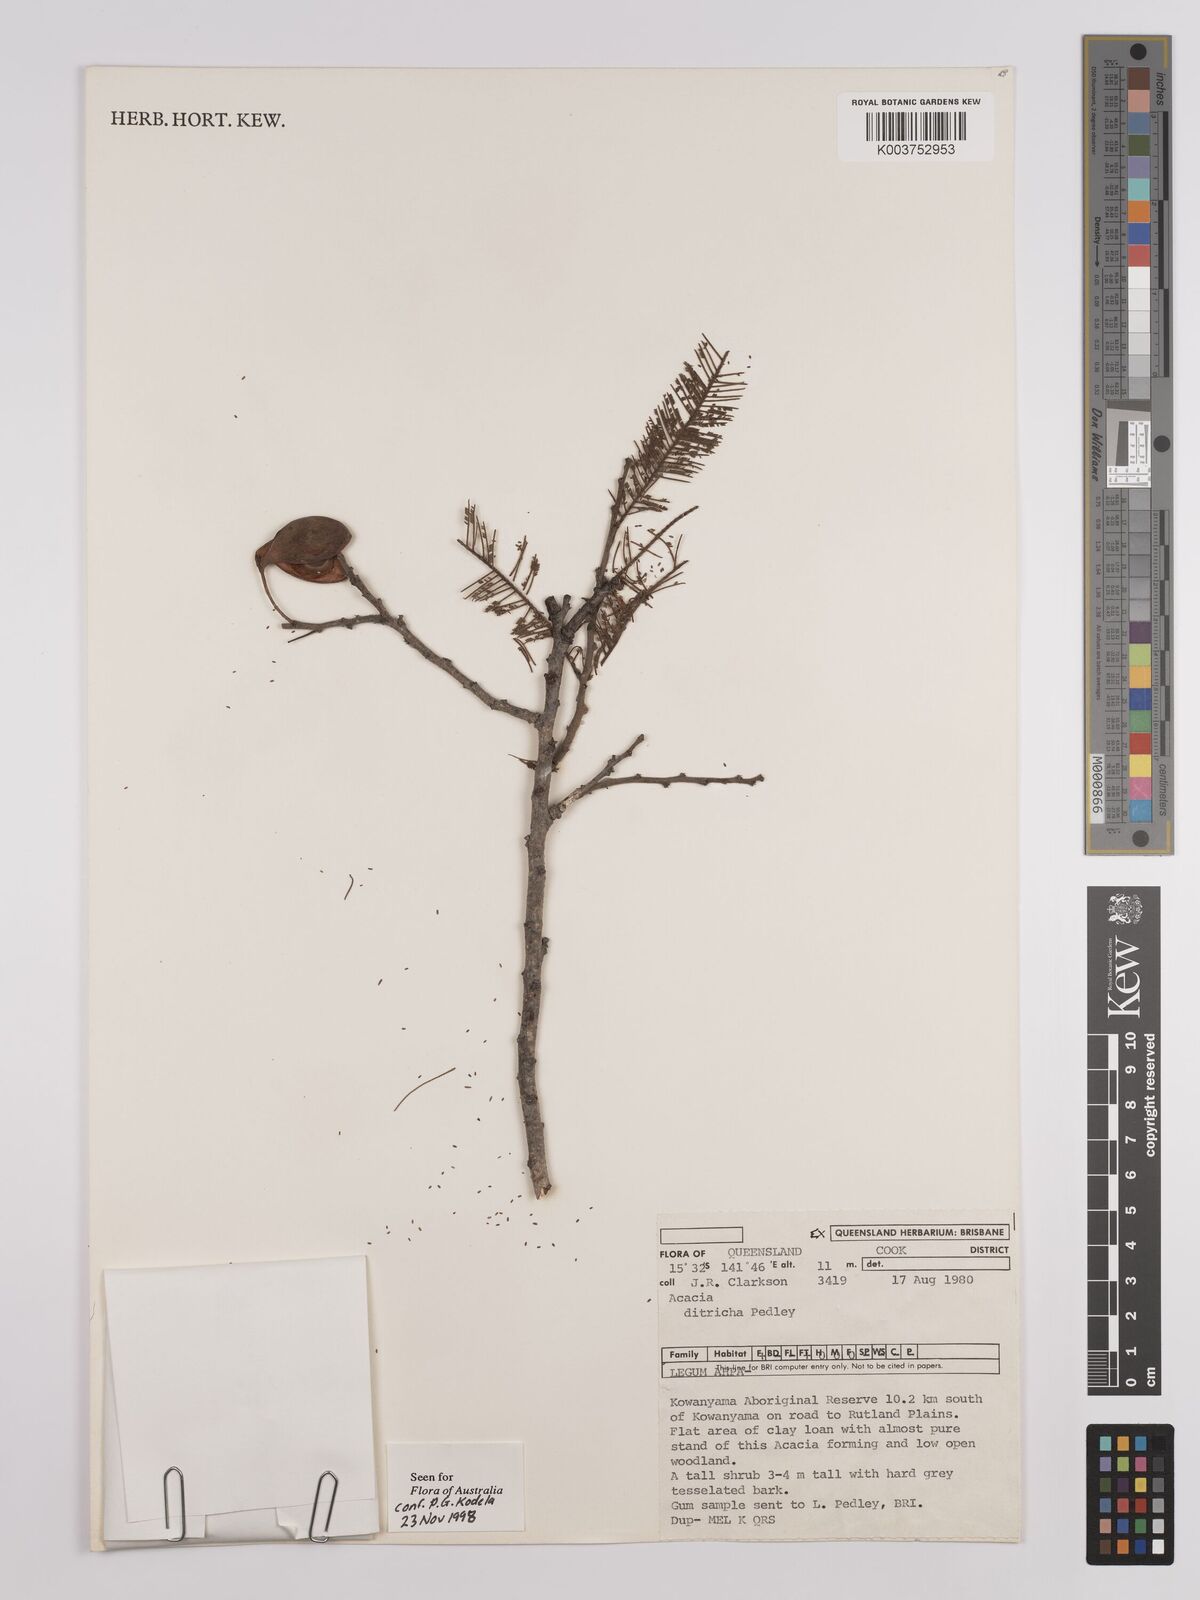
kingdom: Plantae
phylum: Tracheophyta
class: Magnoliopsida
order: Fabales
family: Fabaceae
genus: Vachellia
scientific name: Vachellia ditricha
